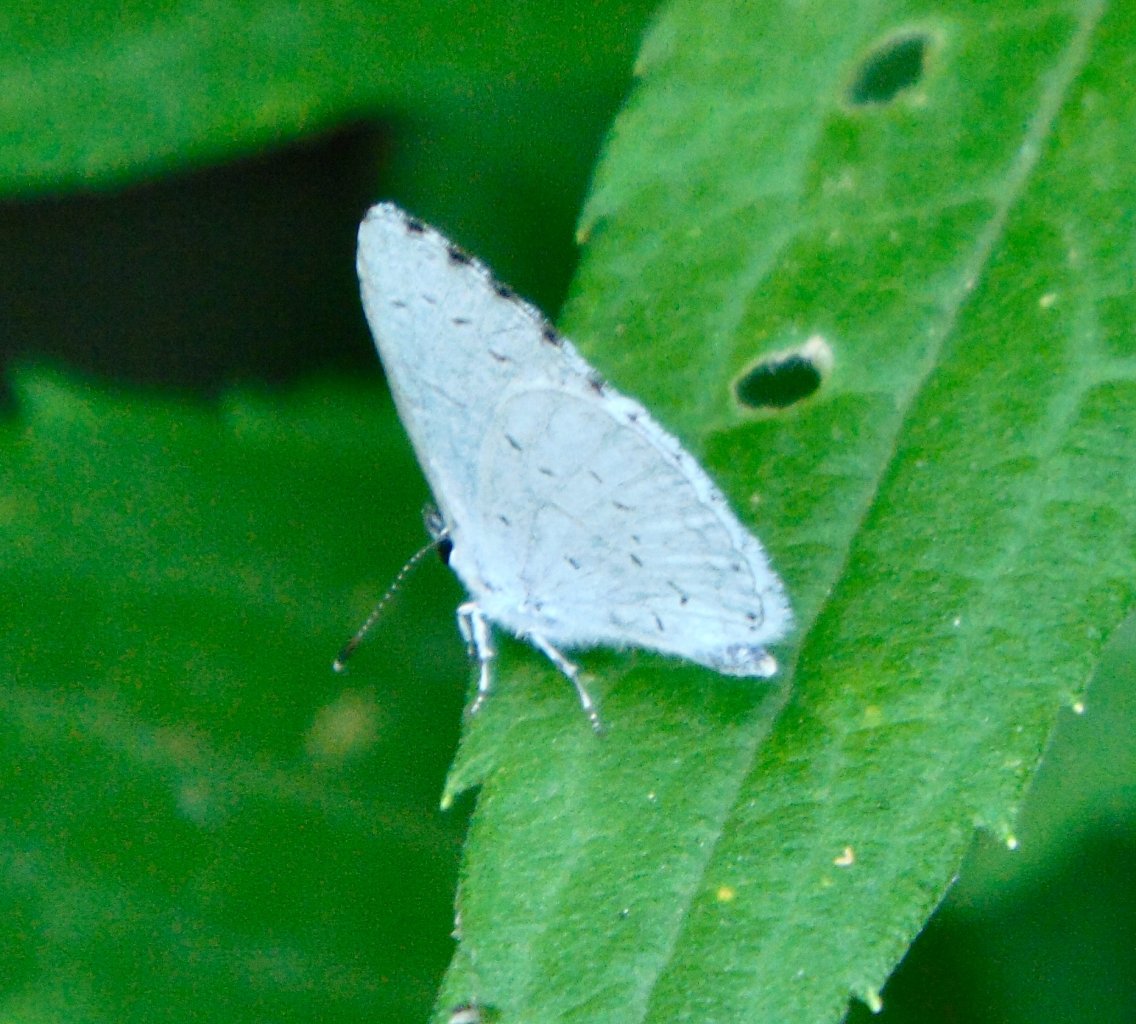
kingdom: Animalia
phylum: Arthropoda
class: Insecta
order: Lepidoptera
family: Lycaenidae
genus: Cyaniris
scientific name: Cyaniris neglecta
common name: Summer Azure
